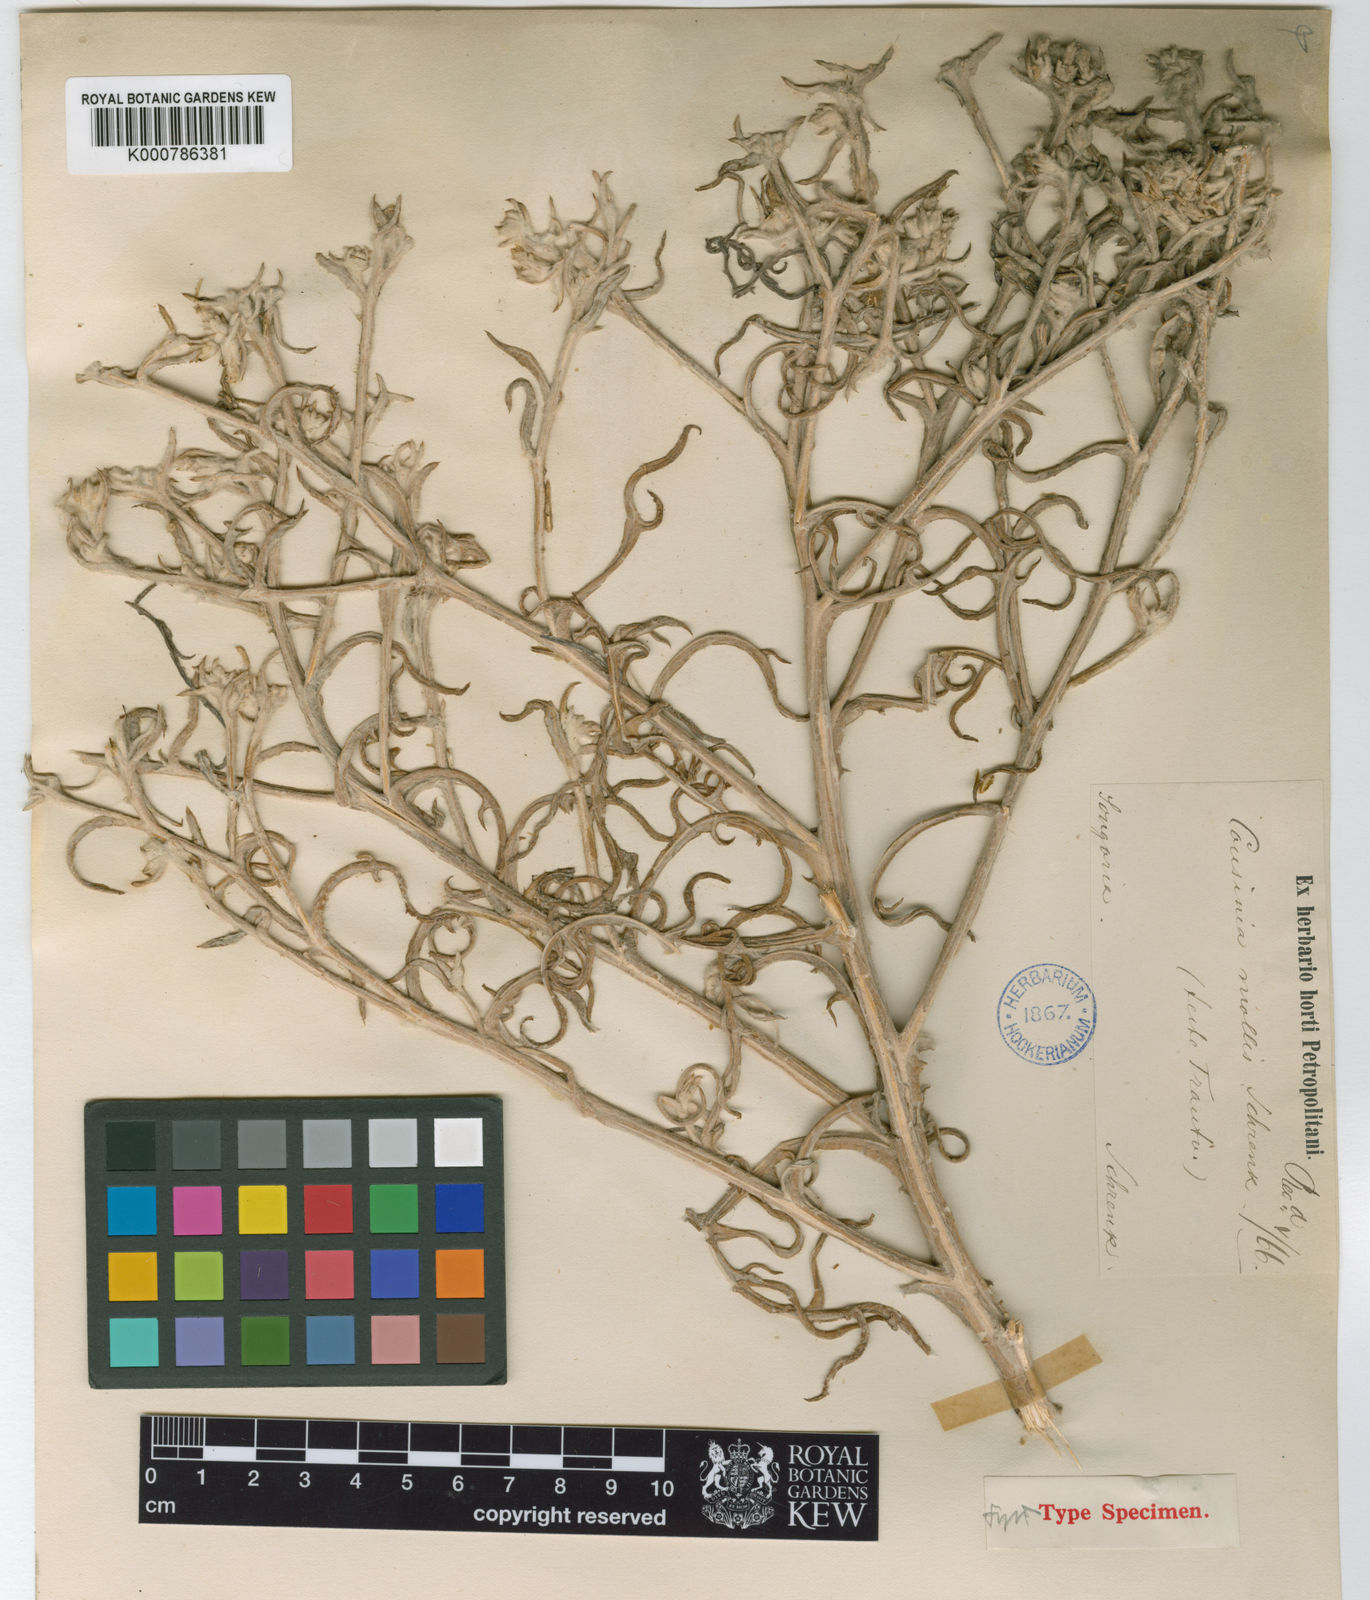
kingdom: Plantae
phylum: Tracheophyta
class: Magnoliopsida
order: Asterales
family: Asteraceae
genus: Cousinia
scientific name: Cousinia mollis
